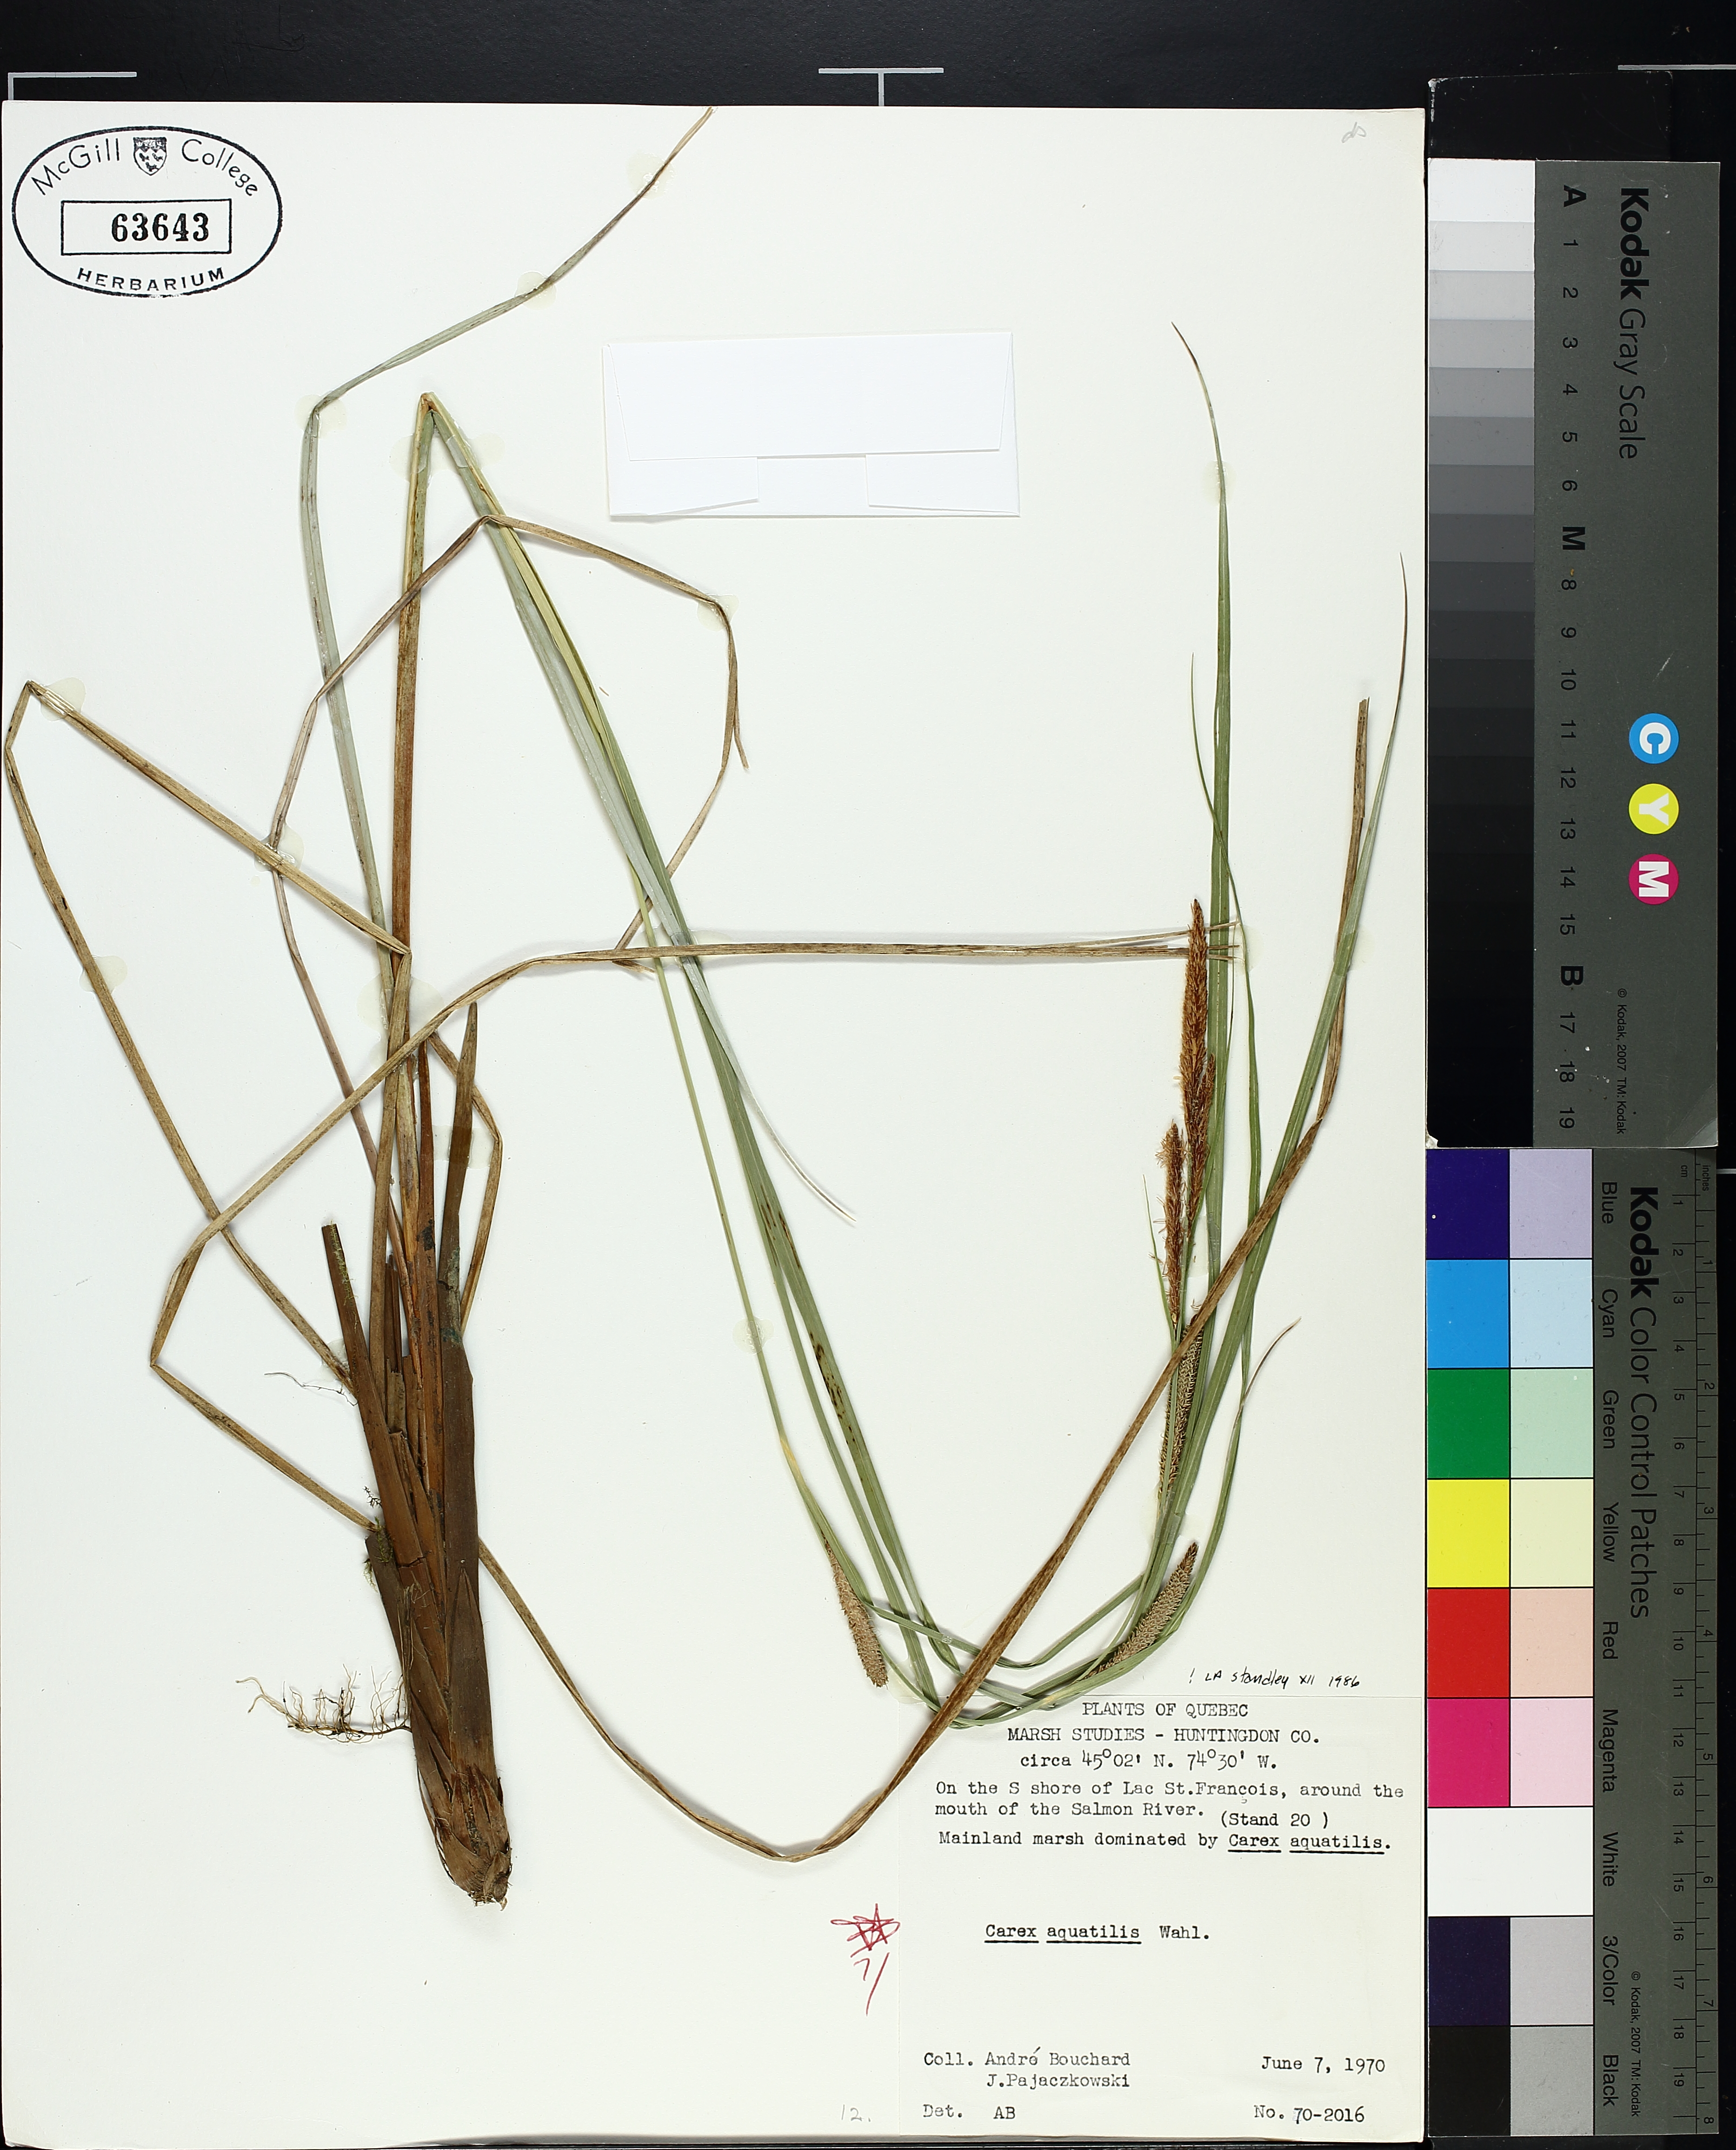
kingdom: Plantae
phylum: Tracheophyta
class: Liliopsida
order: Poales
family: Cyperaceae
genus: Carex
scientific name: Carex aquatilis
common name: Water sedge
